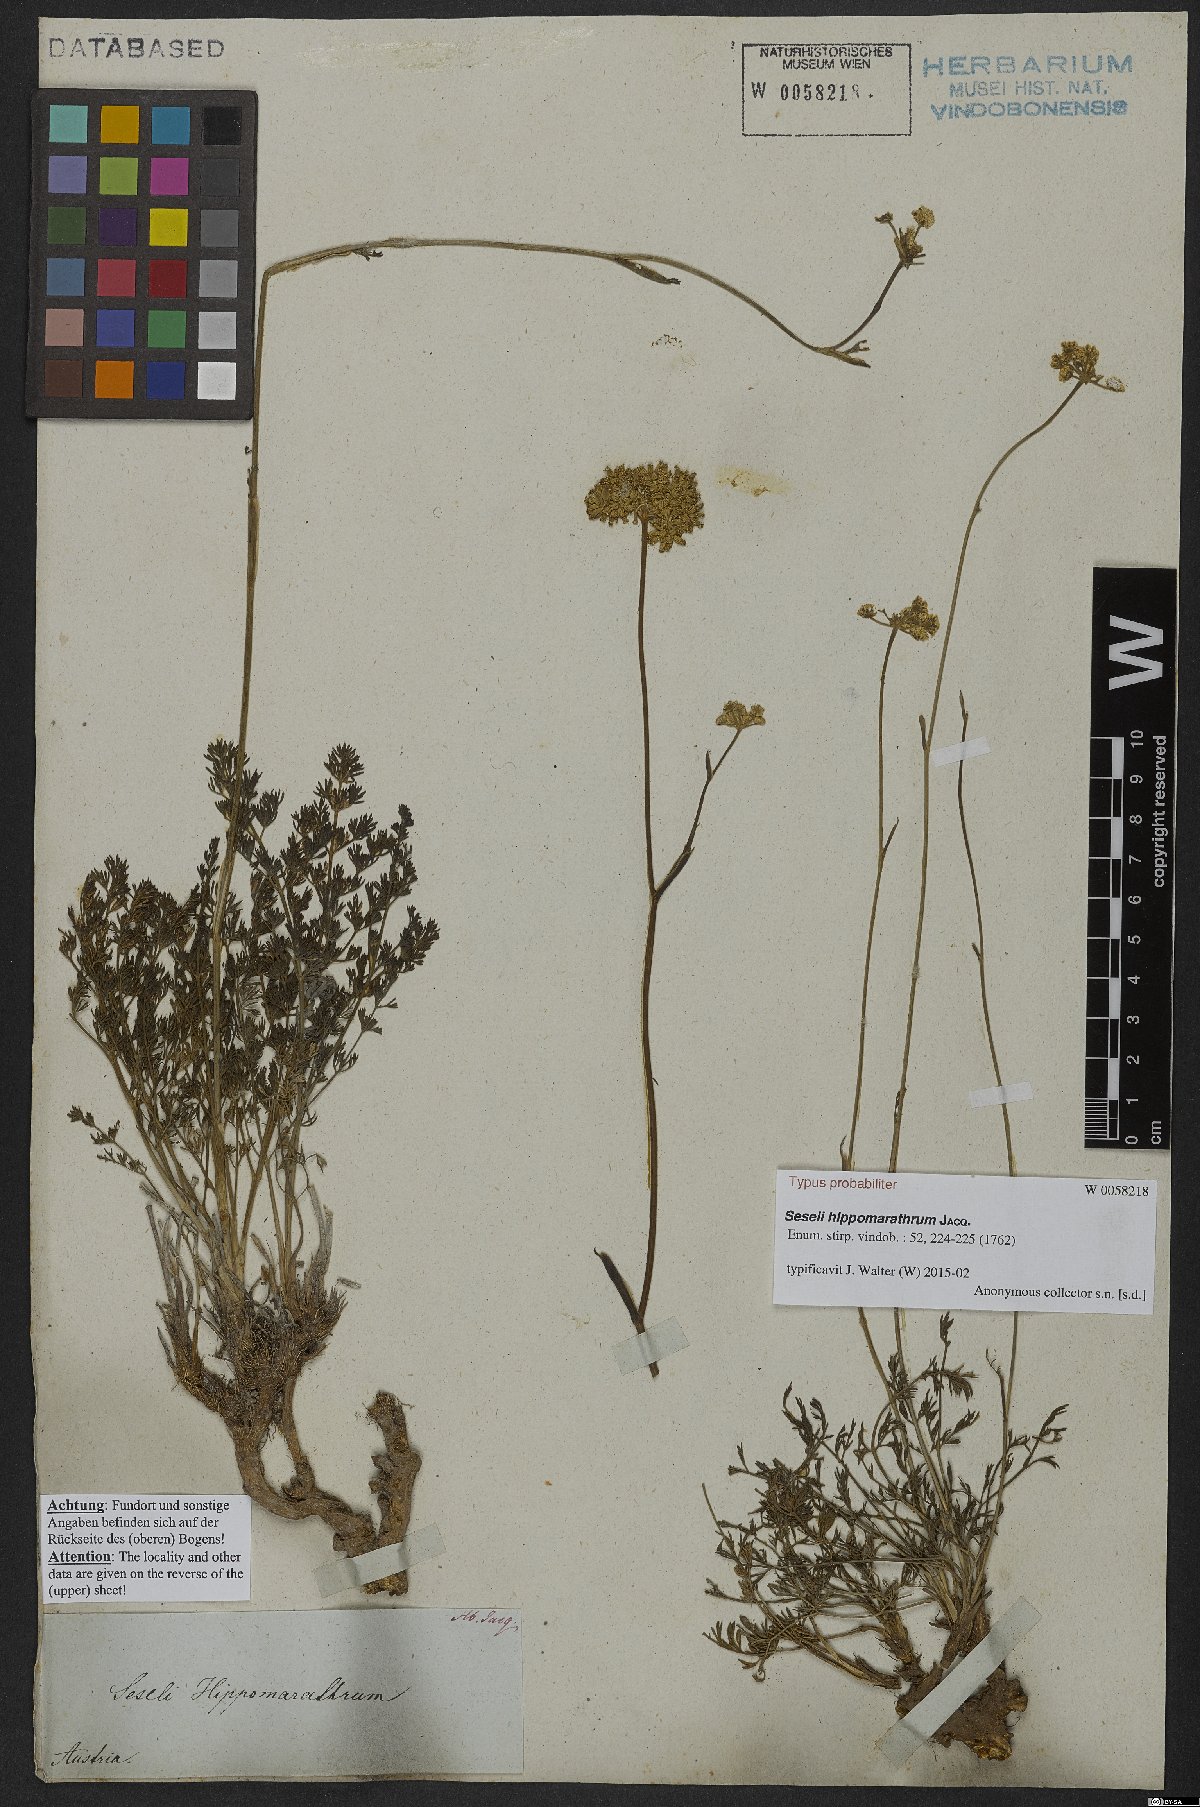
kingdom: Plantae
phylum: Tracheophyta
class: Magnoliopsida
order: Apiales
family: Apiaceae
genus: Hippomarathrum
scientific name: Hippomarathrum vulgare
